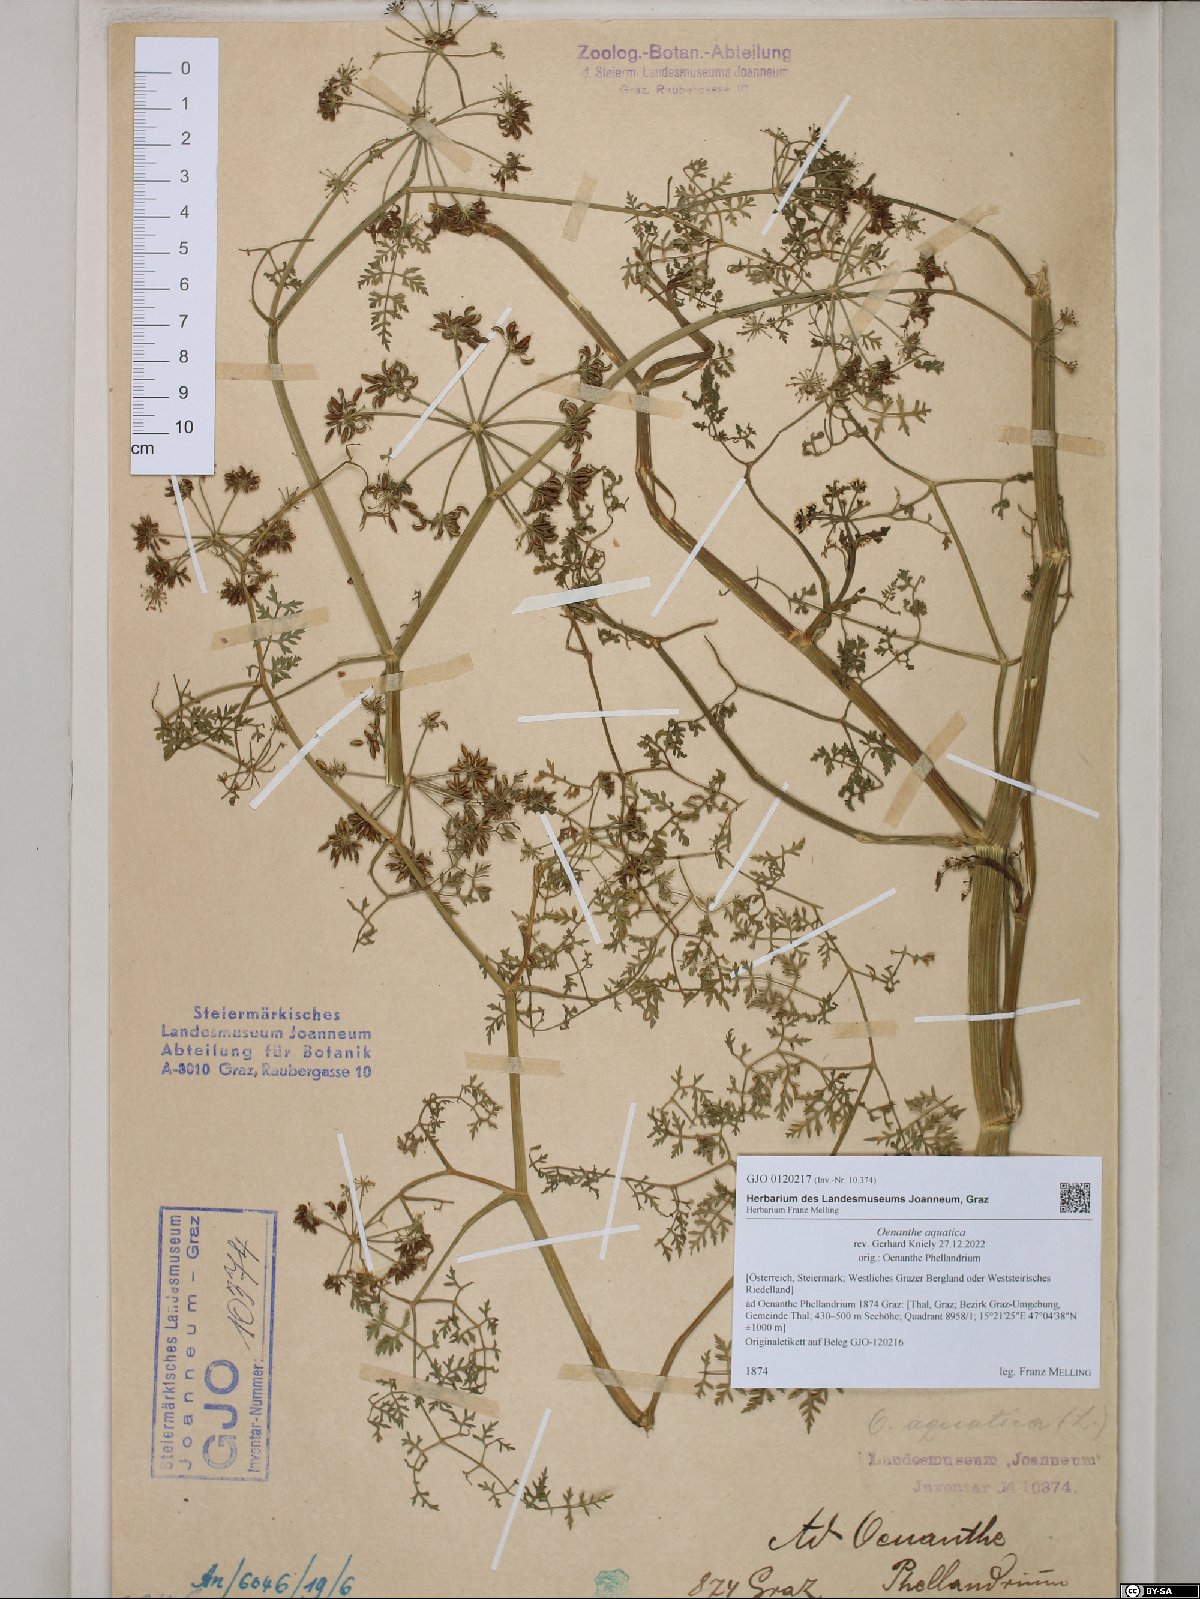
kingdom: Plantae
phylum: Tracheophyta
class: Magnoliopsida
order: Apiales
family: Apiaceae
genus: Oenanthe
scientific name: Oenanthe aquatica
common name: Fine-leaved water-dropwort
